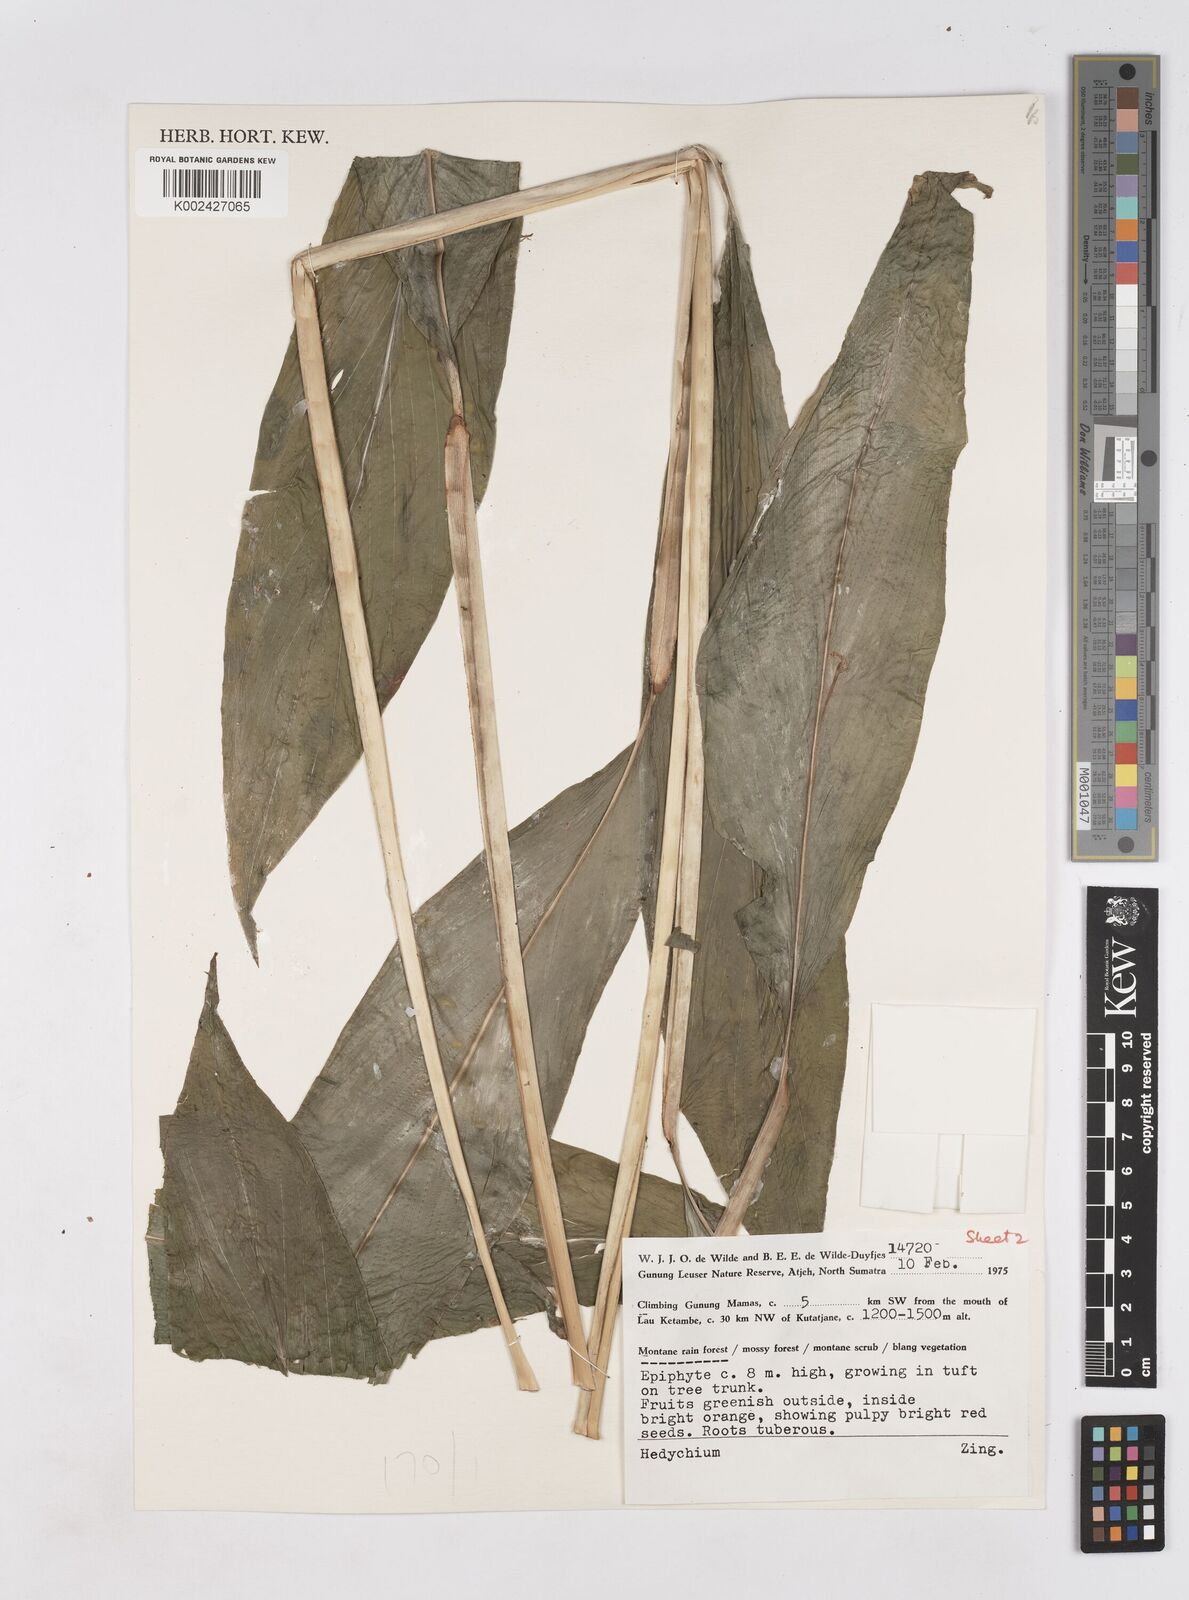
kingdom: Plantae
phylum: Tracheophyta
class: Liliopsida
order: Zingiberales
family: Zingiberaceae
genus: Hedychium
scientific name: Hedychium
